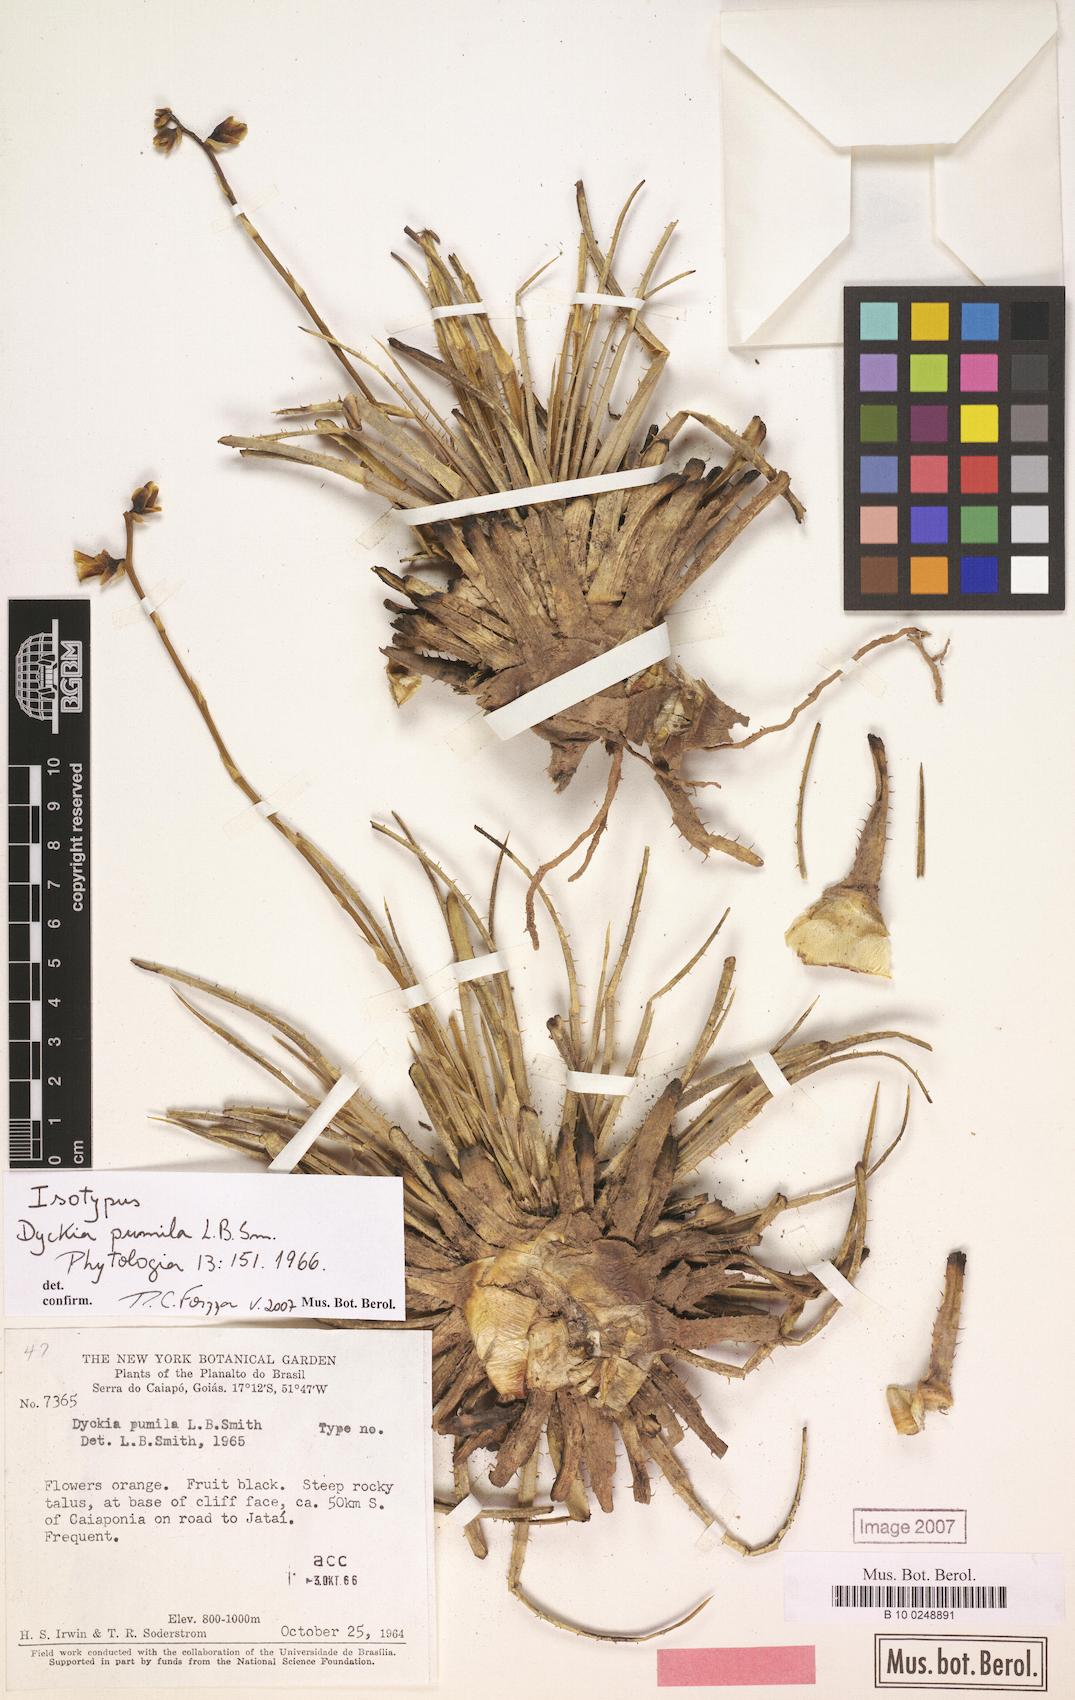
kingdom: Plantae
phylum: Tracheophyta
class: Liliopsida
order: Poales
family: Bromeliaceae
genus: Dyckia
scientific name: Dyckia pumila
